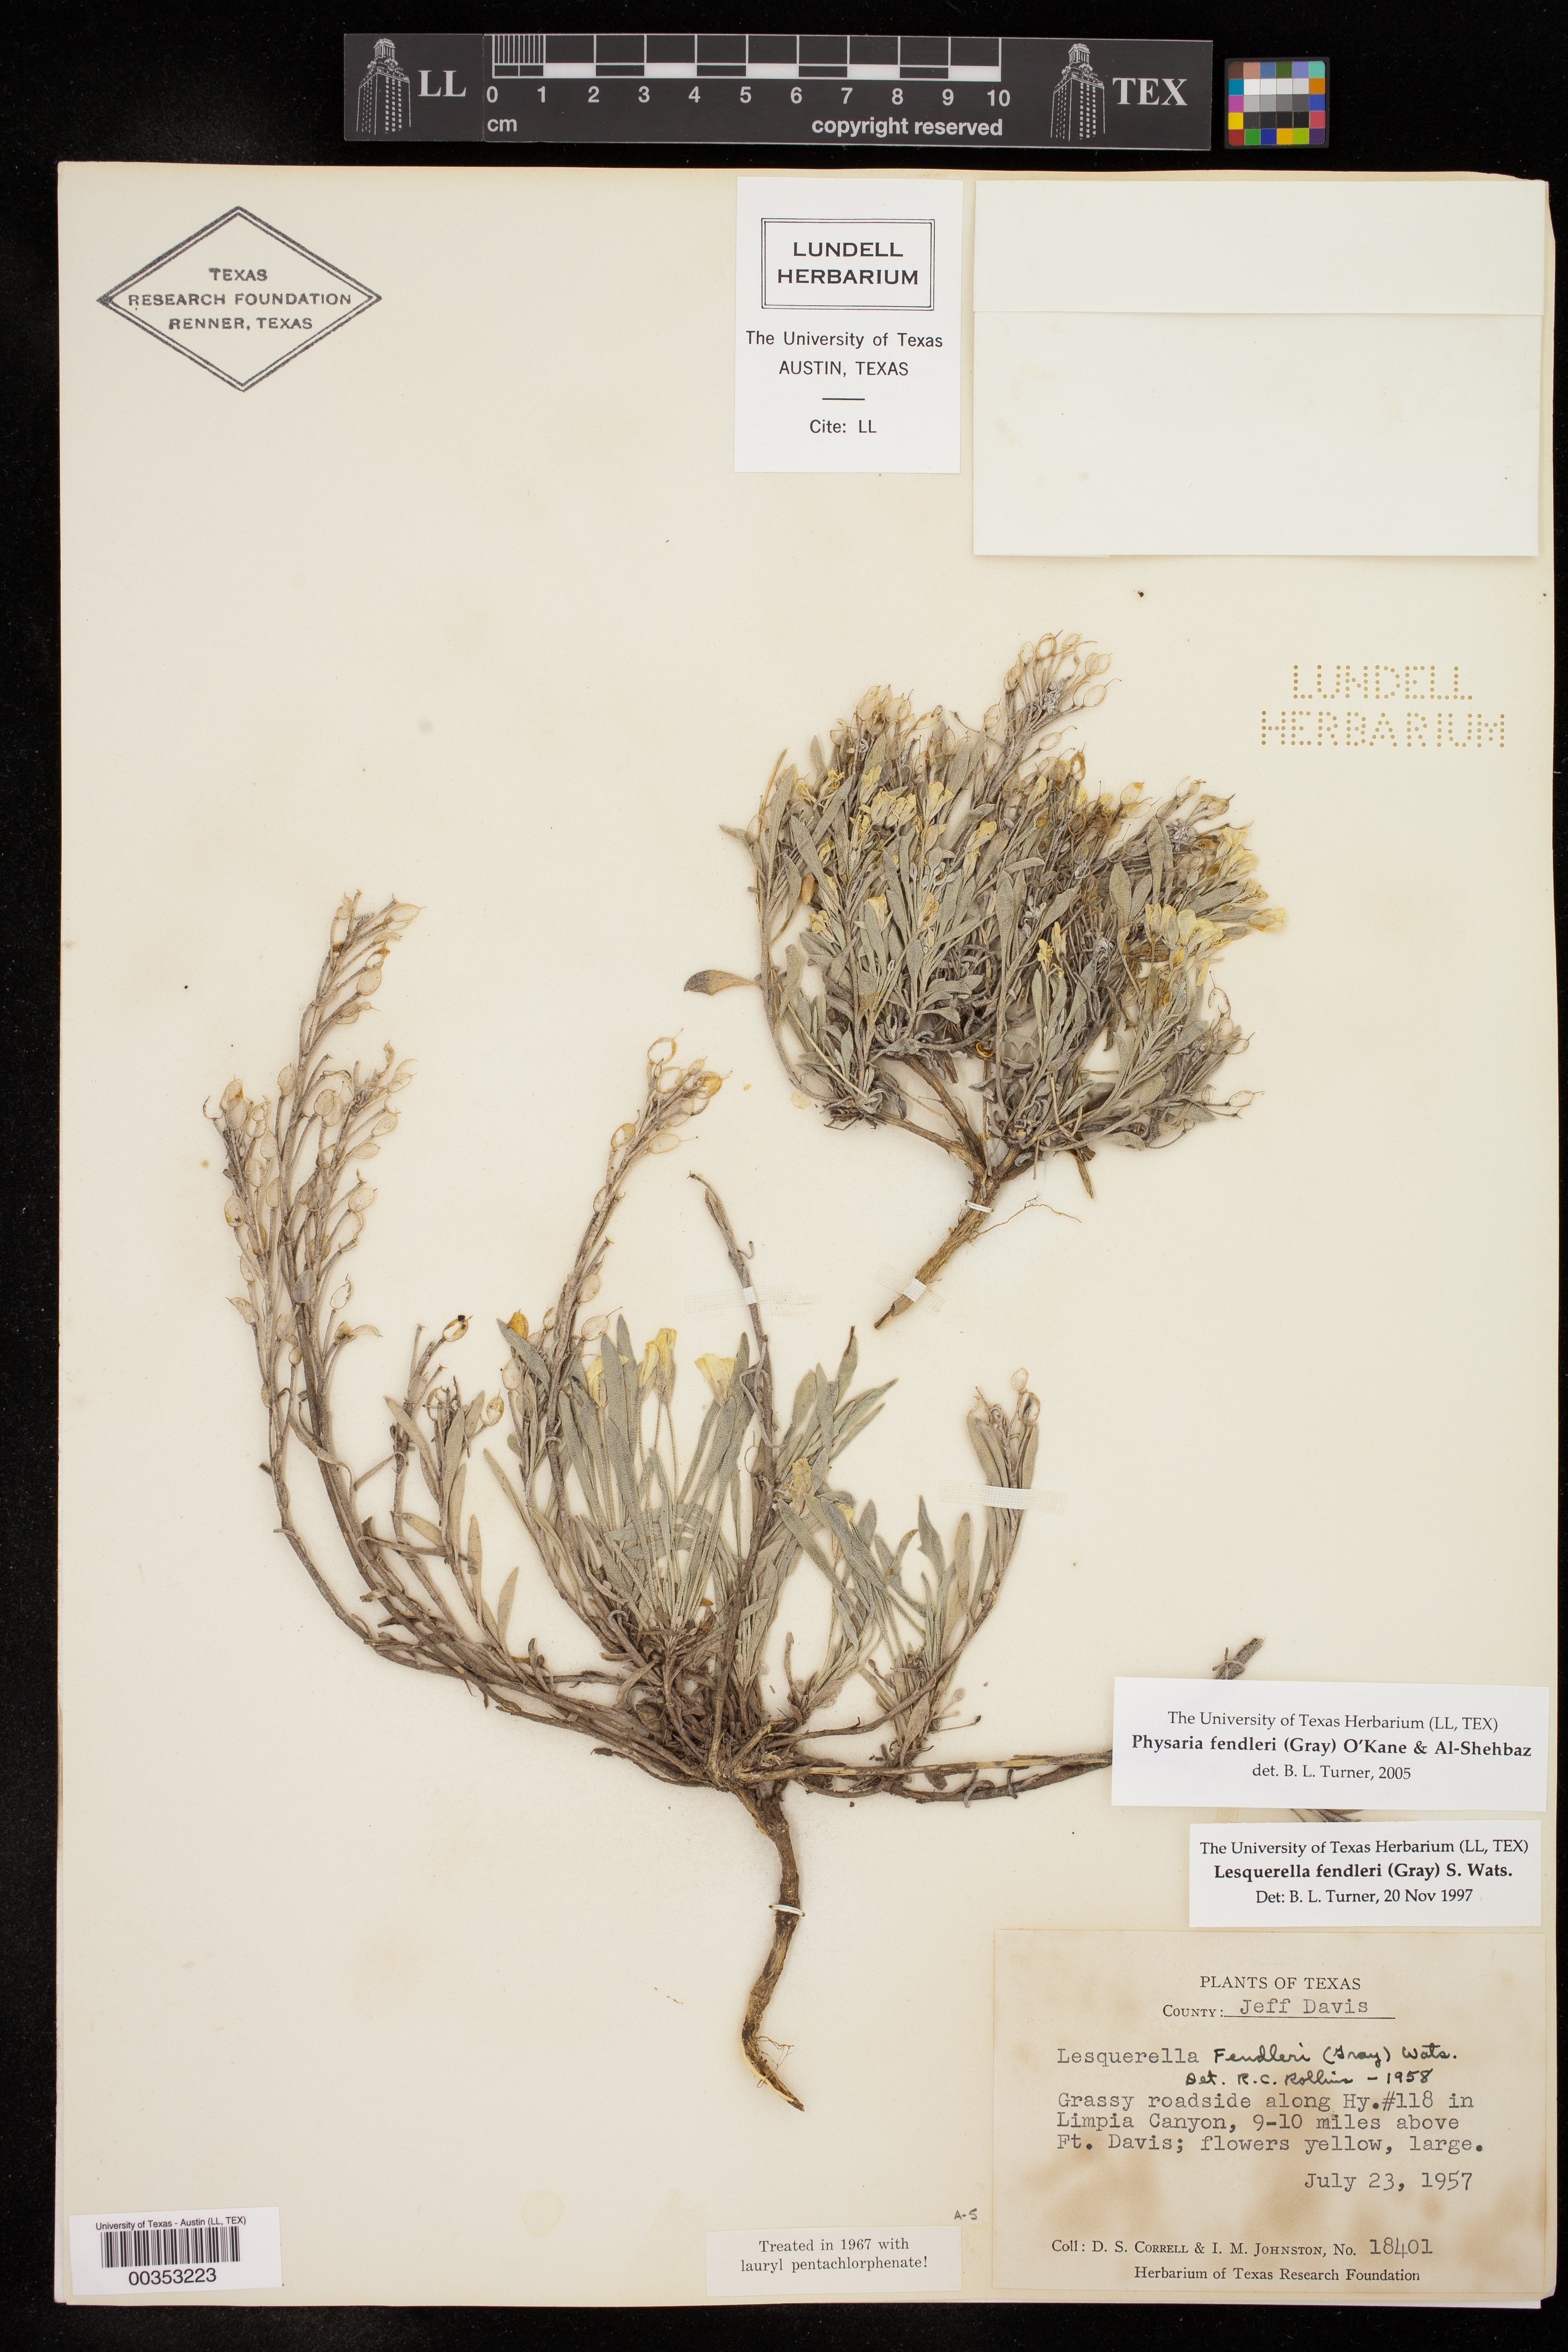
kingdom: Plantae
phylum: Tracheophyta
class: Magnoliopsida
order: Brassicales
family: Brassicaceae
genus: Physaria
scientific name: Physaria fendleri
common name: Fendler's bladderpod
